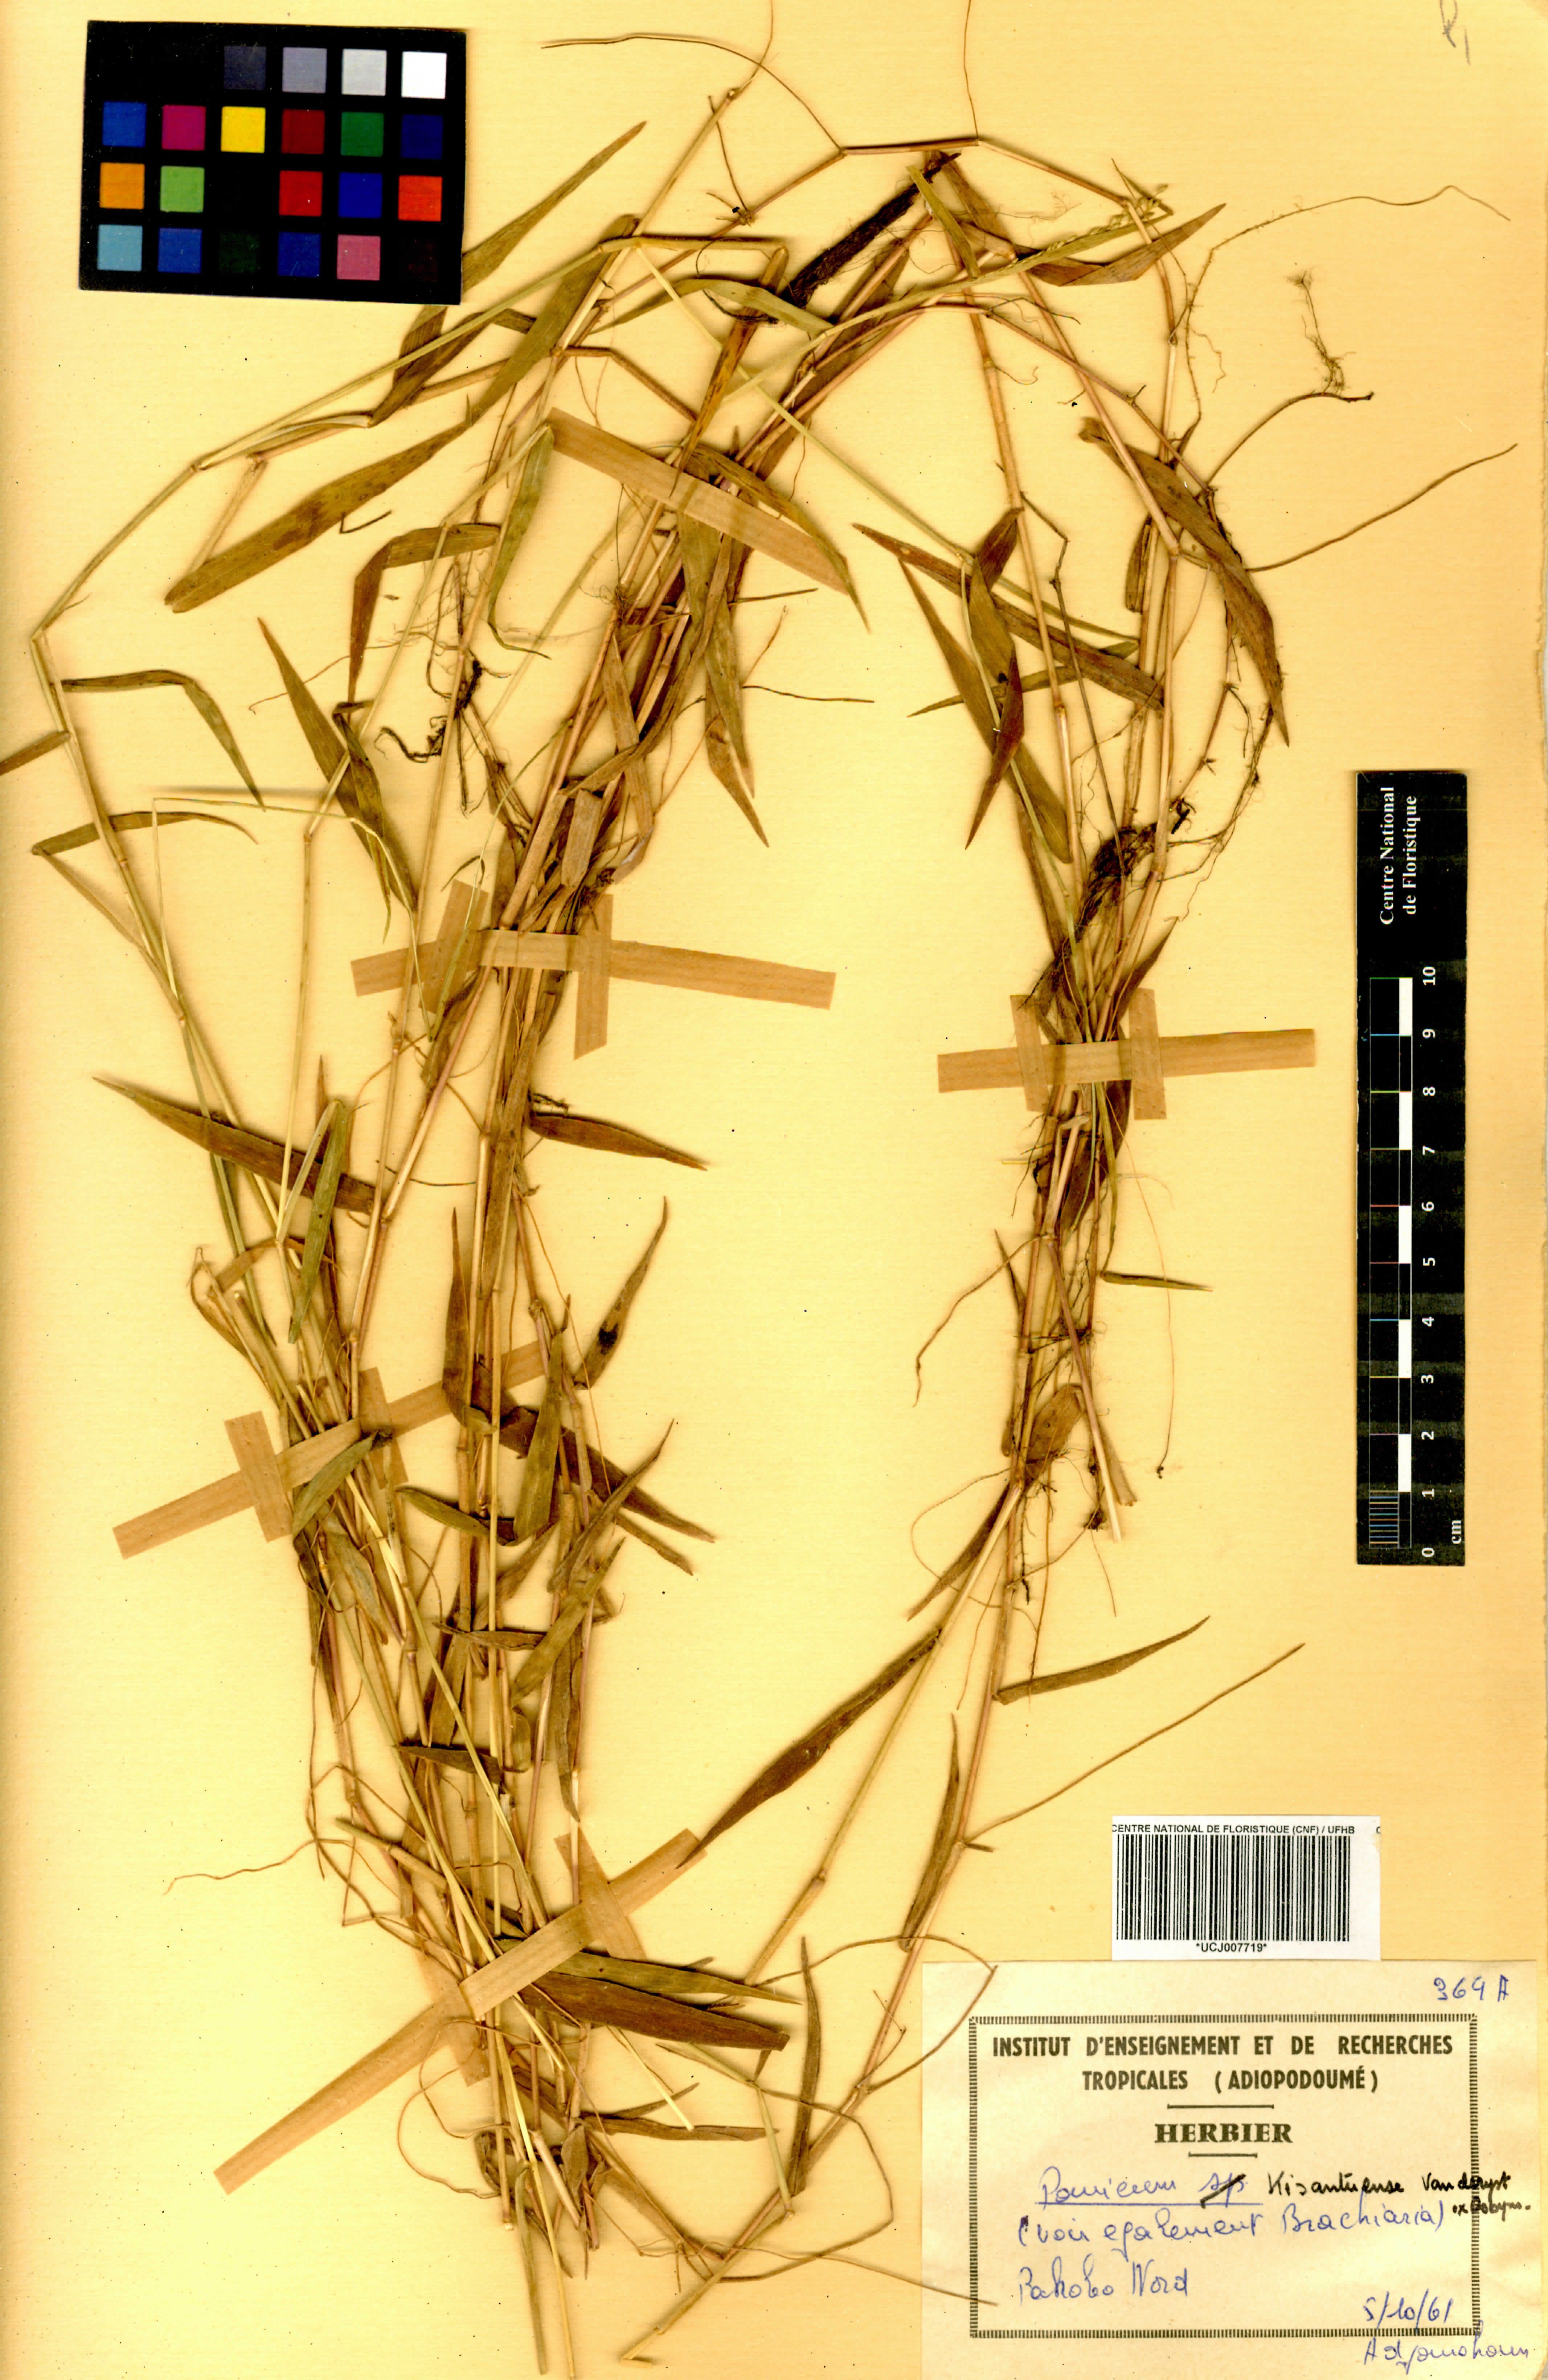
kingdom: Plantae
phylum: Tracheophyta
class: Liliopsida
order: Poales
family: Poaceae
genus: Adenochloa
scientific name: Adenochloa hymeniochila
